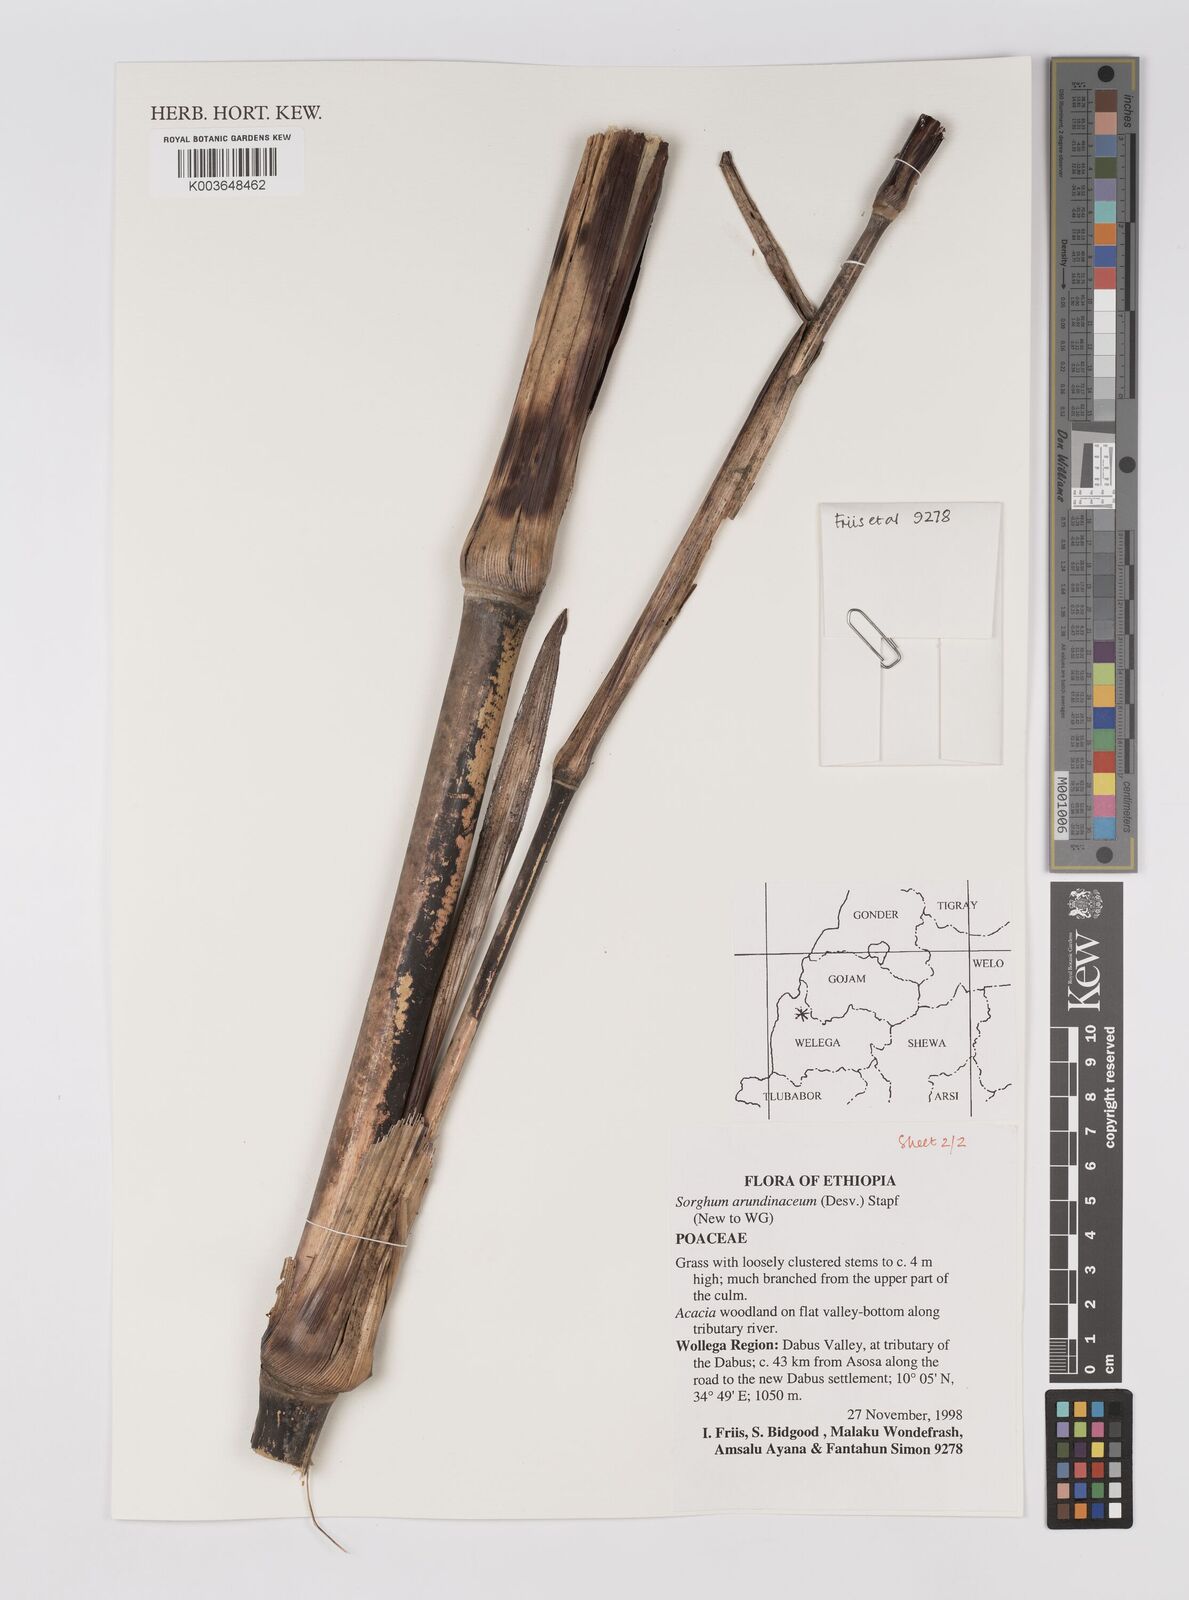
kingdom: Plantae
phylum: Tracheophyta
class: Liliopsida
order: Poales
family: Poaceae
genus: Sorghum
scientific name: Sorghum arundinaceum
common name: Sorghum
